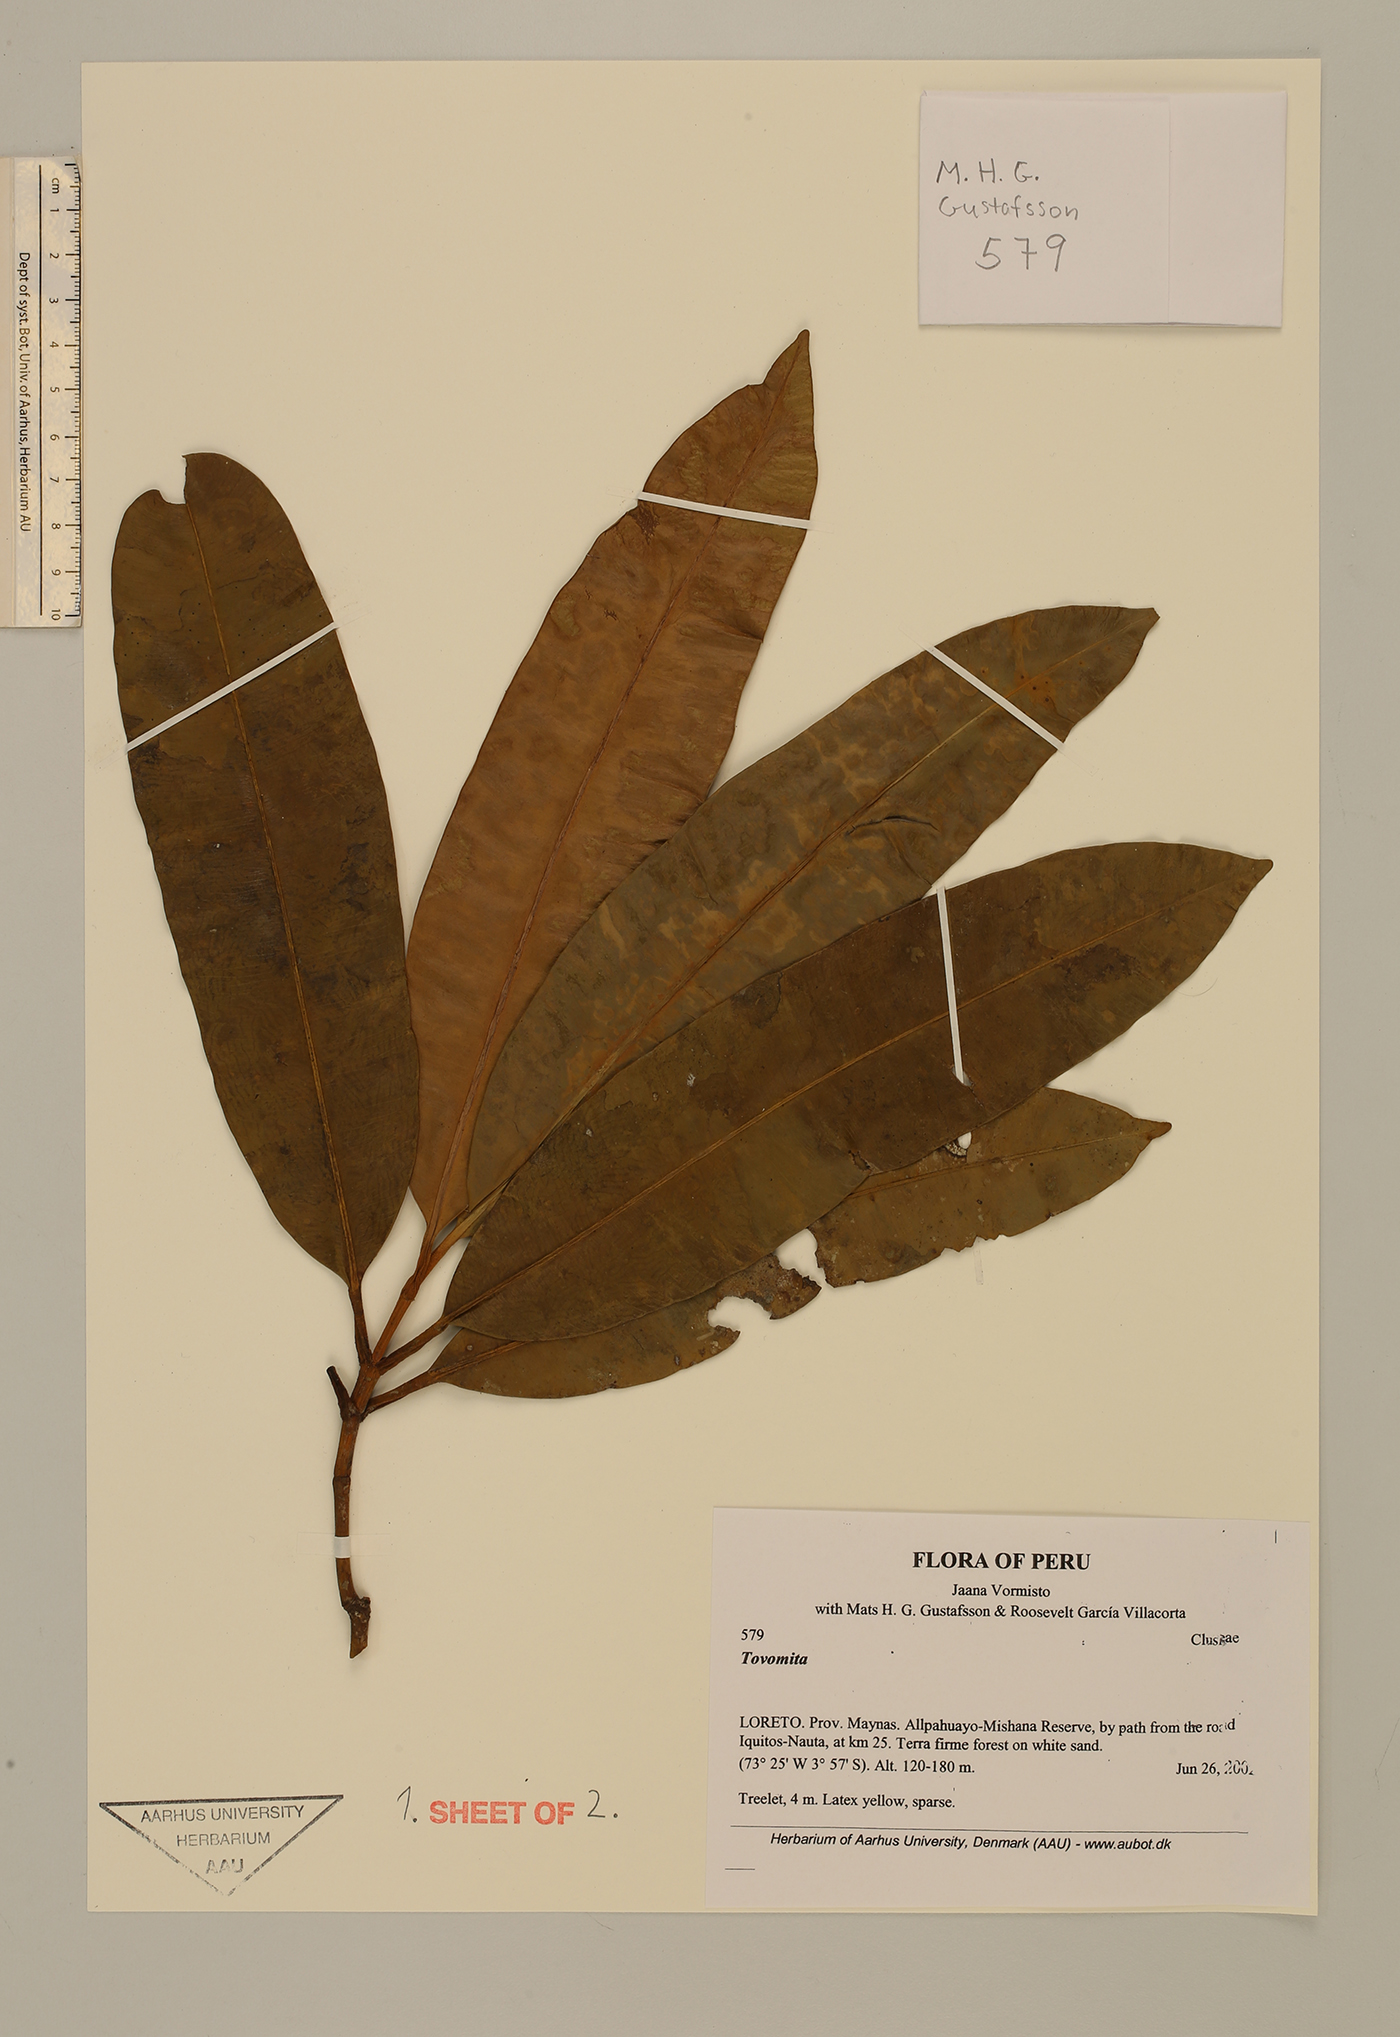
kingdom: Plantae
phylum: Tracheophyta
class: Magnoliopsida
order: Malpighiales
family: Clusiaceae
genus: Tovomita
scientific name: Tovomita calophyllophylla
